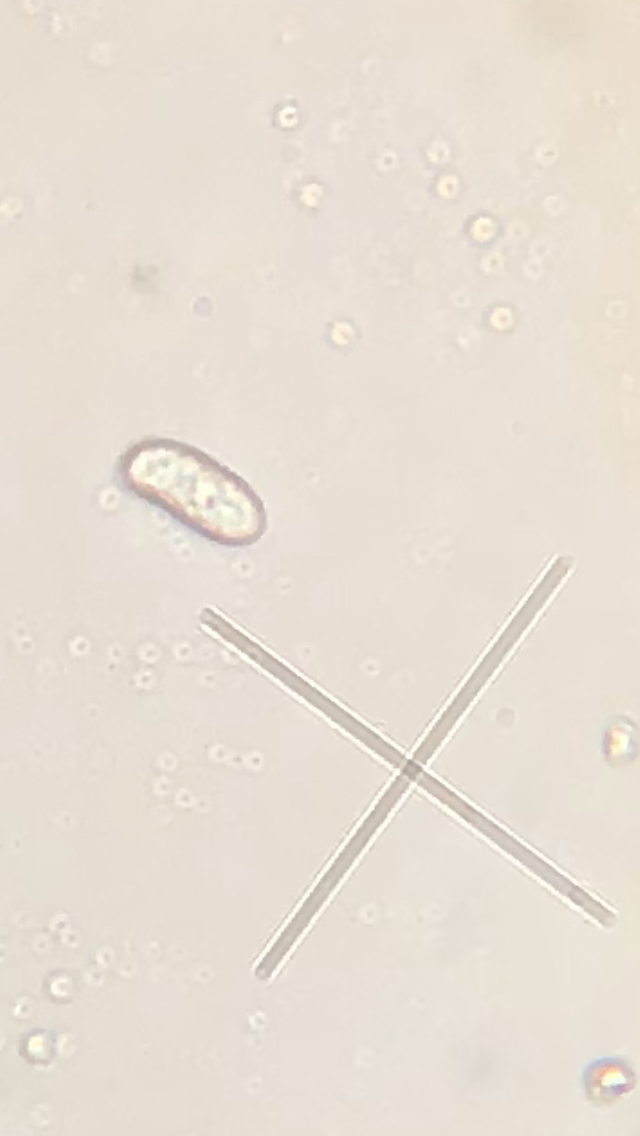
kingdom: Fungi
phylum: Basidiomycota
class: Agaricomycetes
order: Russulales
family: Peniophoraceae
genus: Peniophora
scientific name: Peniophora lycii
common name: grynet voksskind
